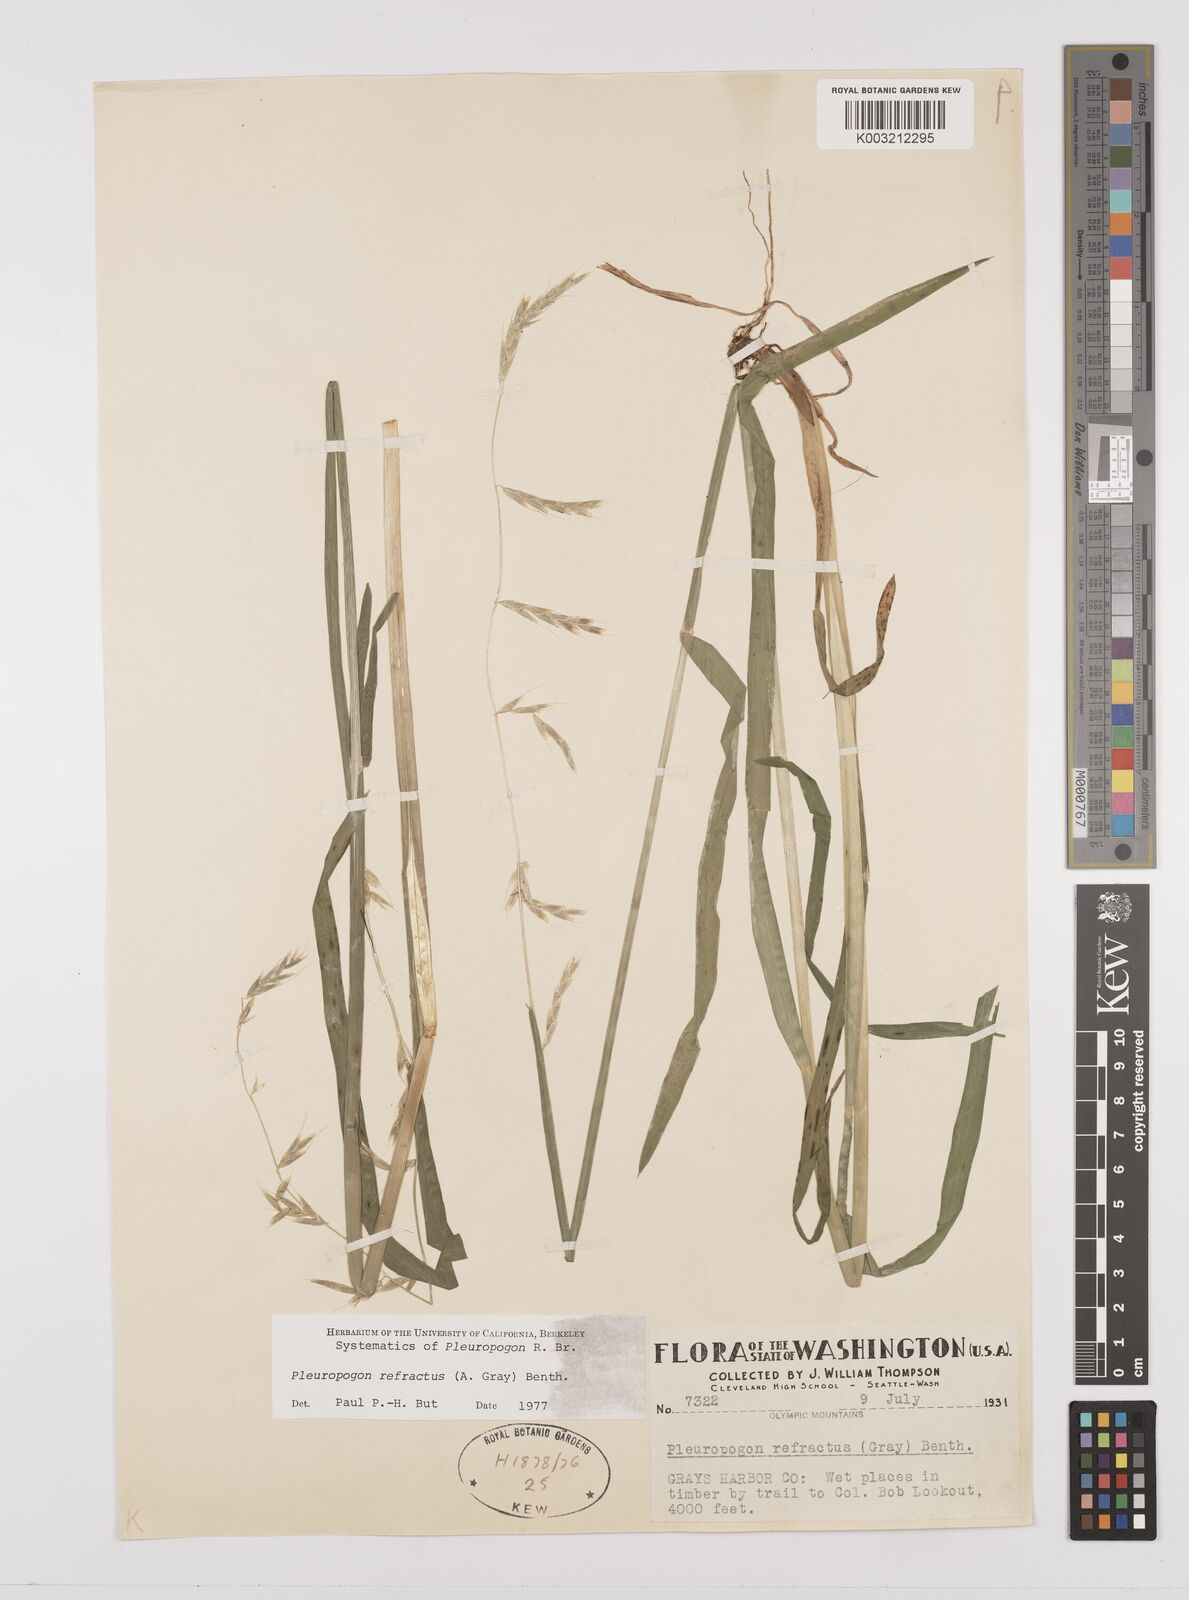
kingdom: Plantae
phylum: Tracheophyta
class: Liliopsida
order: Poales
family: Poaceae
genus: Pleuropogon
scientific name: Pleuropogon refractus
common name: Nodding false semaphoregrass
